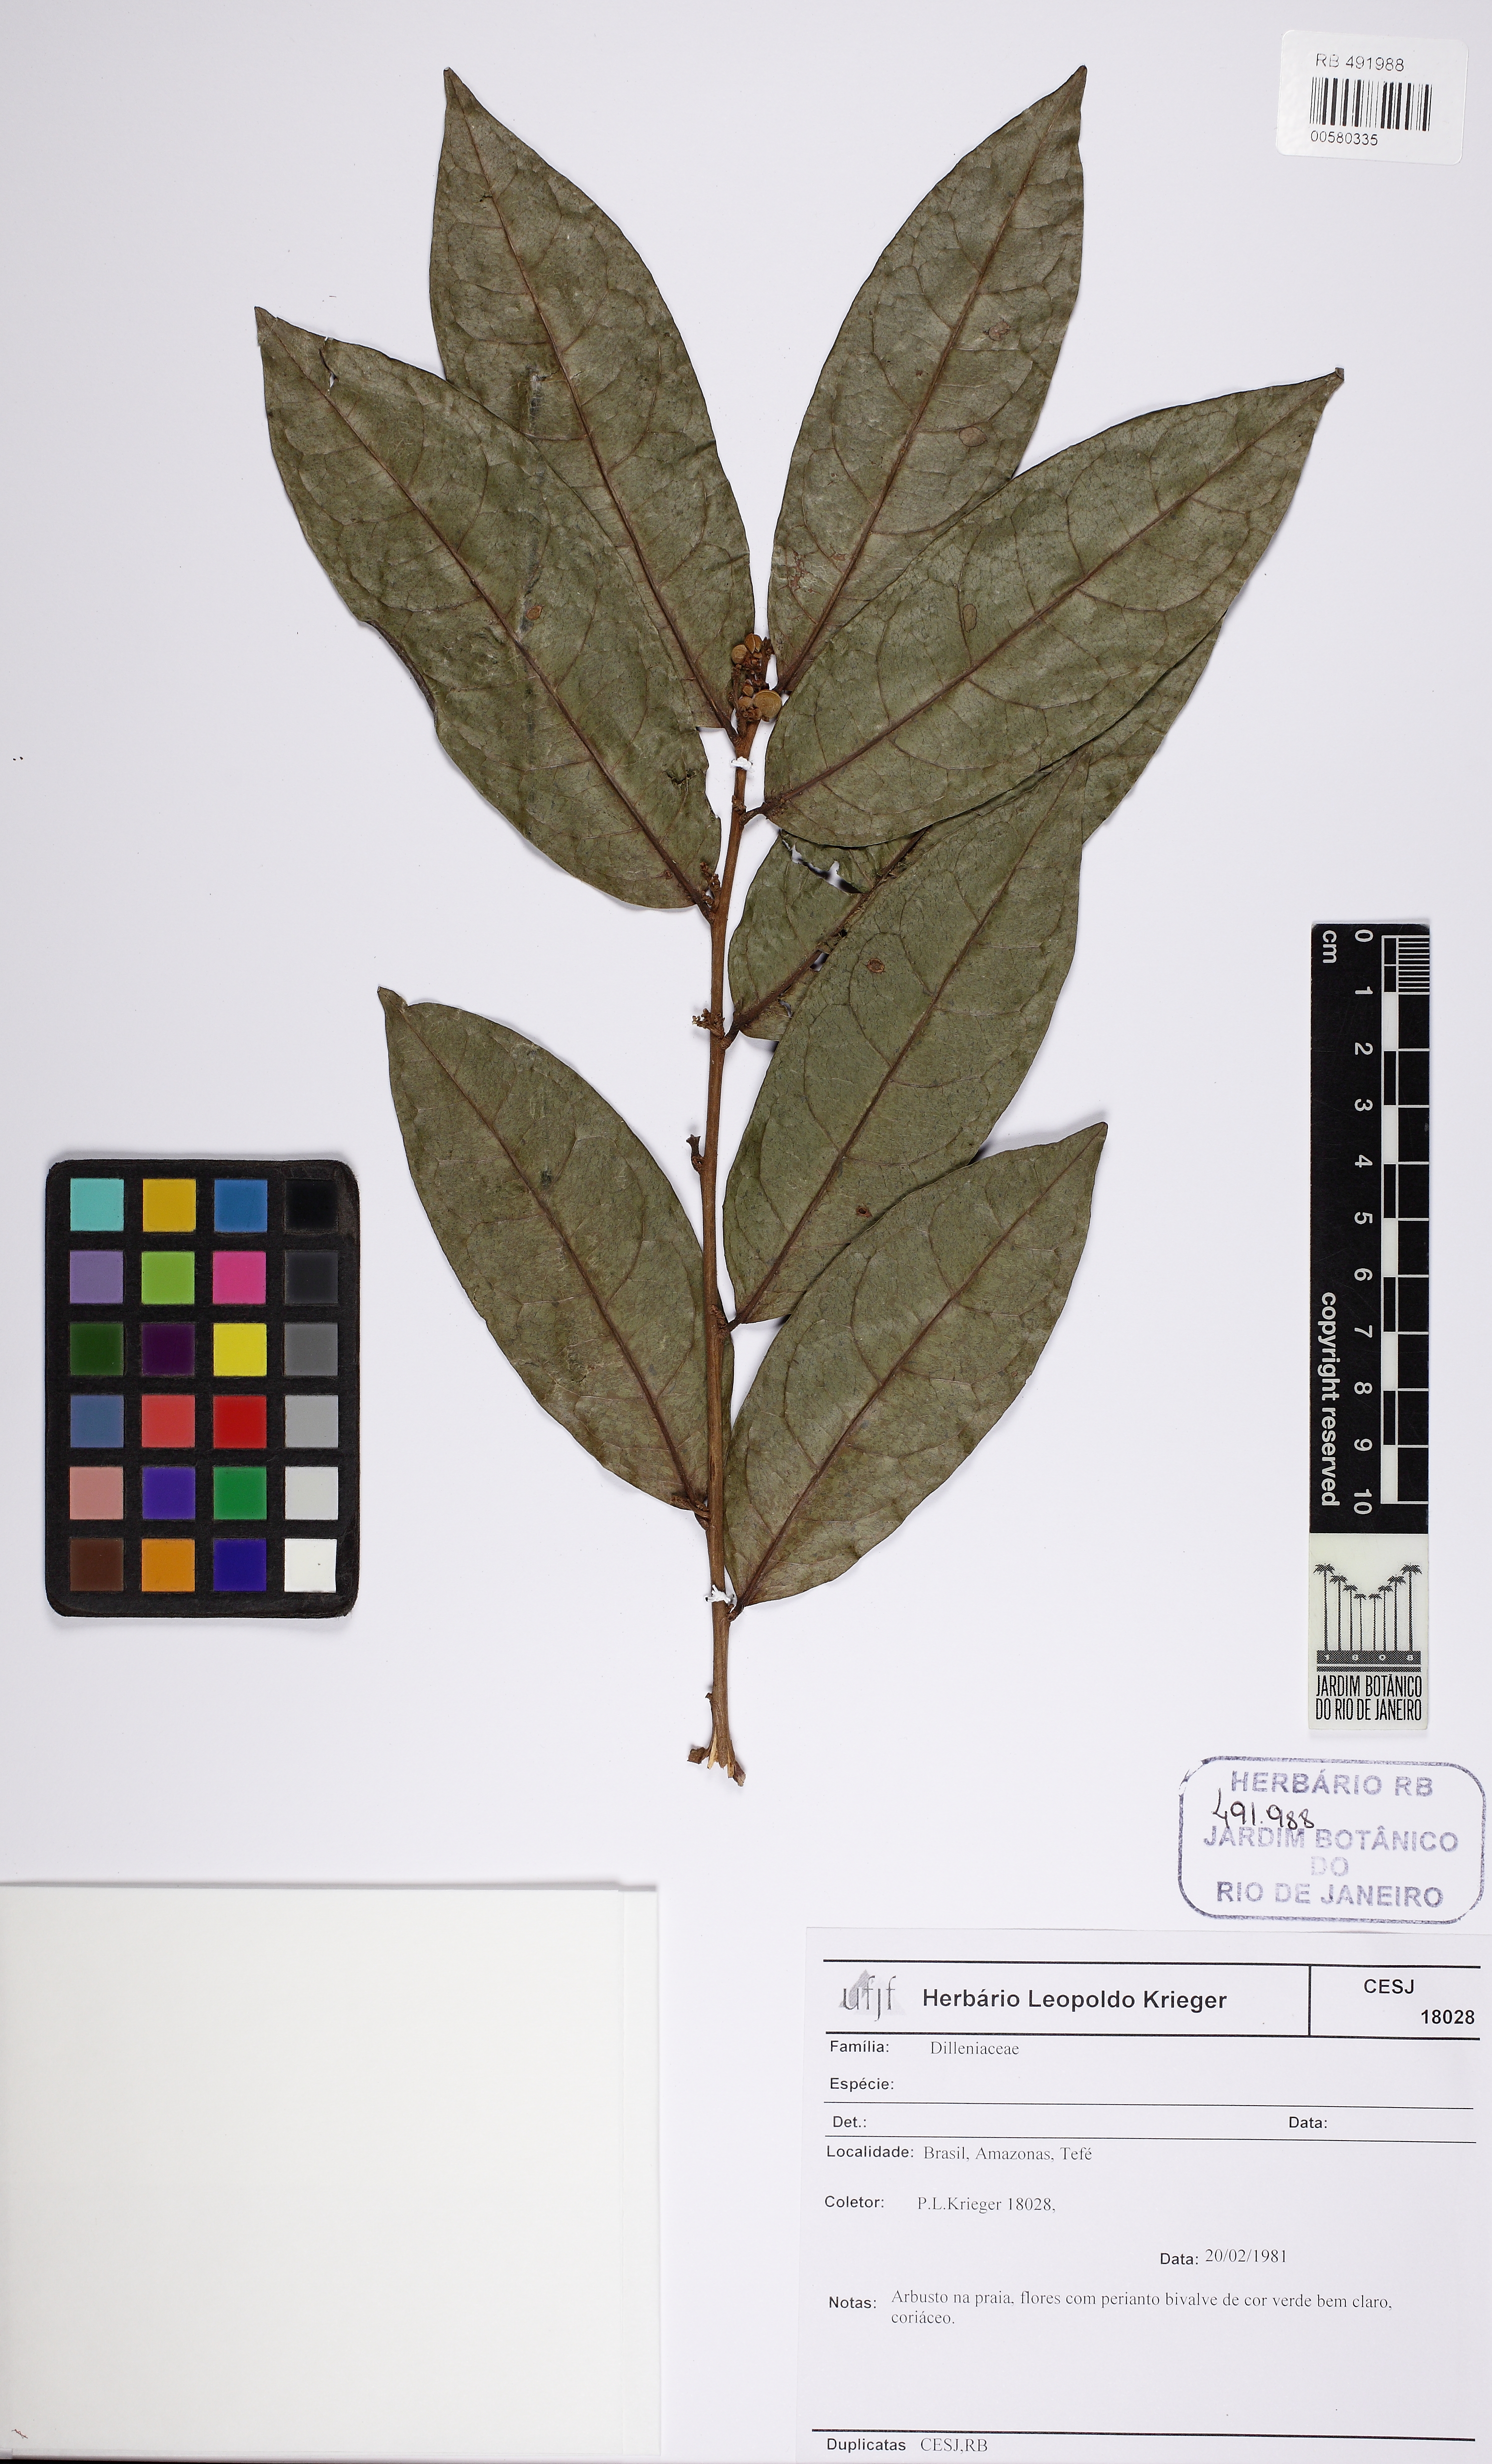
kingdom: Plantae
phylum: Tracheophyta
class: Magnoliopsida
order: Dilleniales
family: Dilleniaceae
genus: Davilla
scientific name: Davilla
